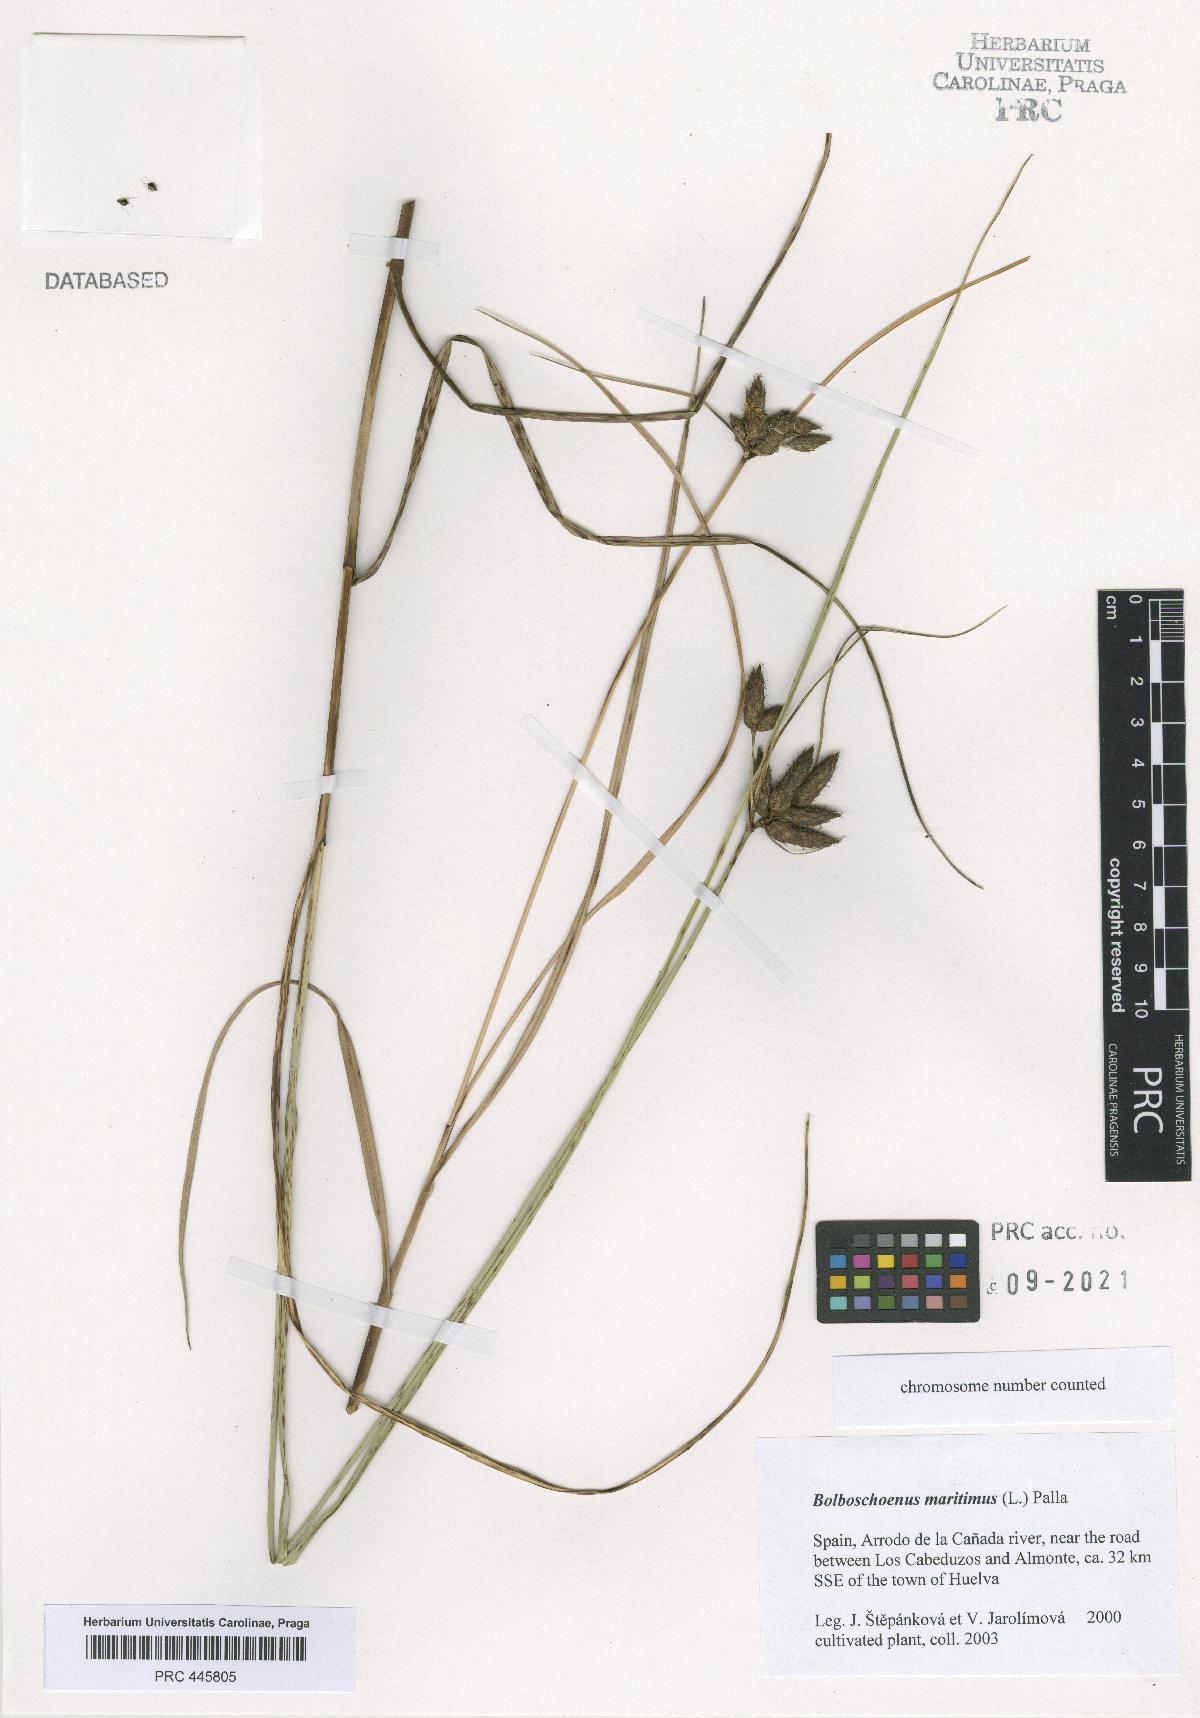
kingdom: Plantae
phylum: Tracheophyta
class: Liliopsida
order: Poales
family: Cyperaceae
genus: Bolboschoenus
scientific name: Bolboschoenus maritimus
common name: Sea club-rush
